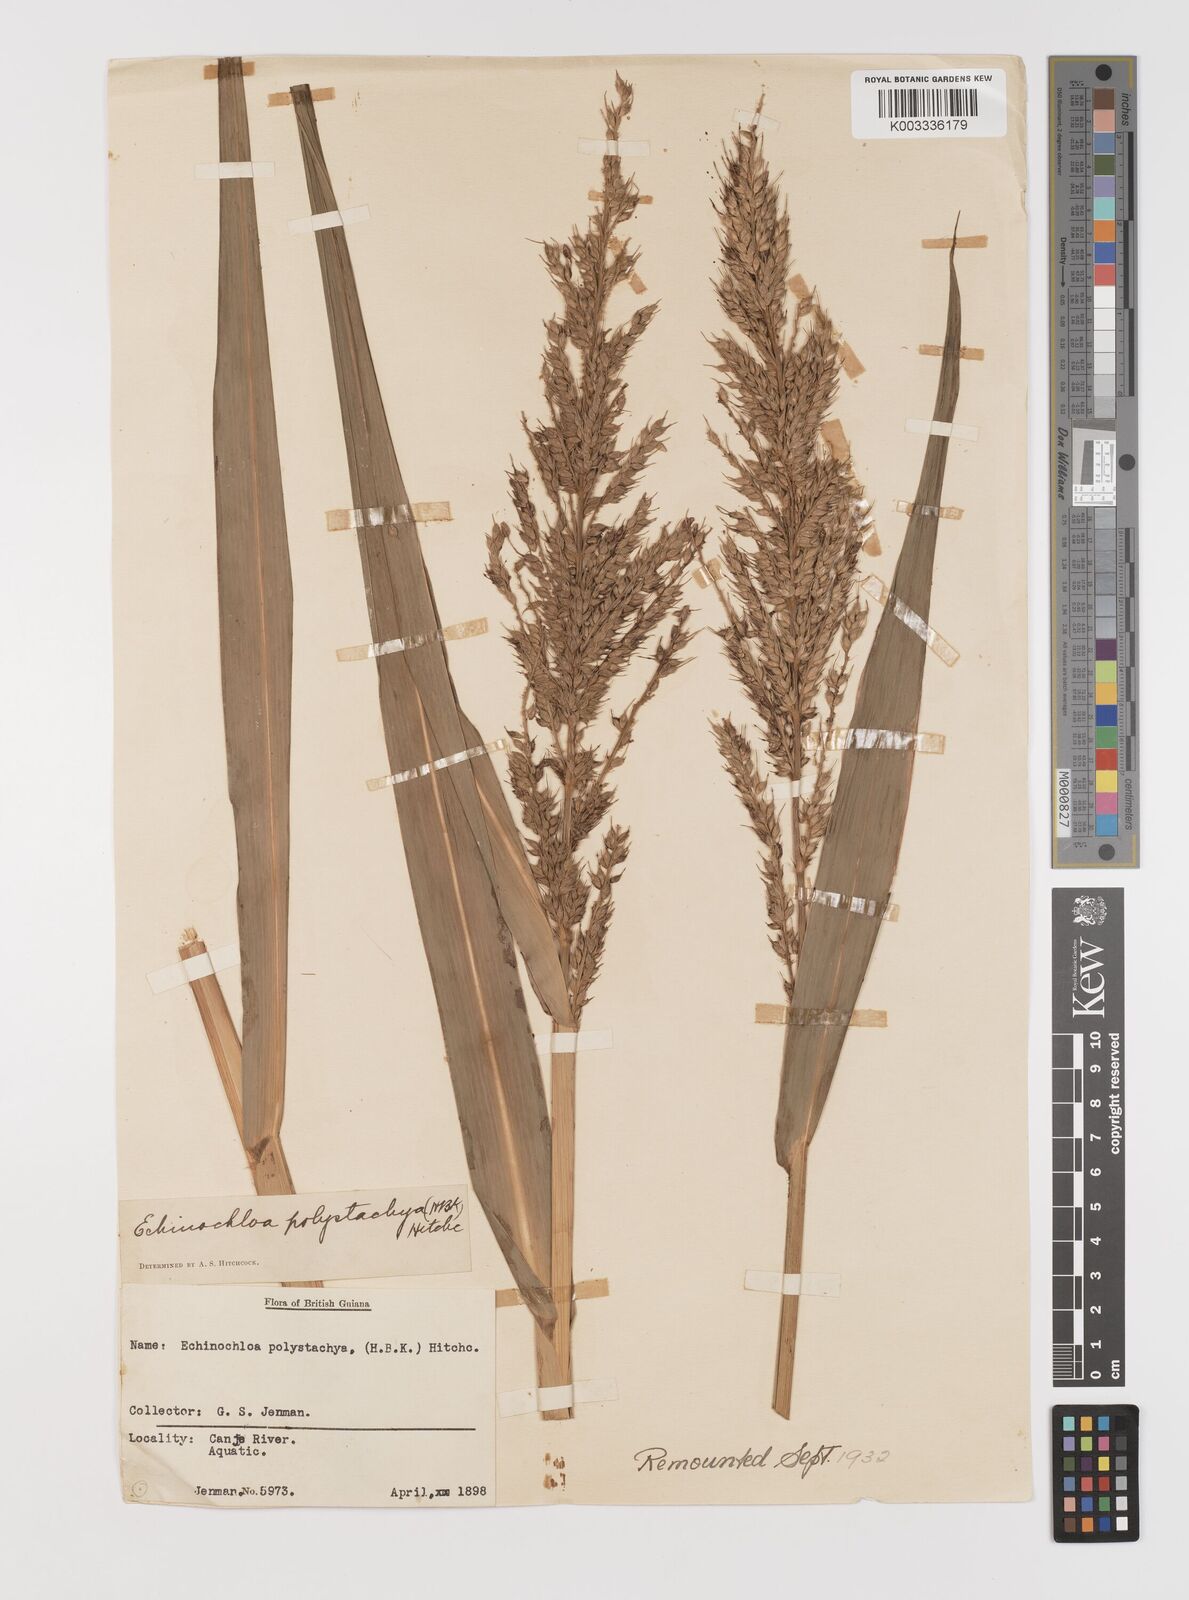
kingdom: Plantae
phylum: Tracheophyta
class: Liliopsida
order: Poales
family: Poaceae
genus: Pseudechinolaena
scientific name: Pseudechinolaena polystachya
